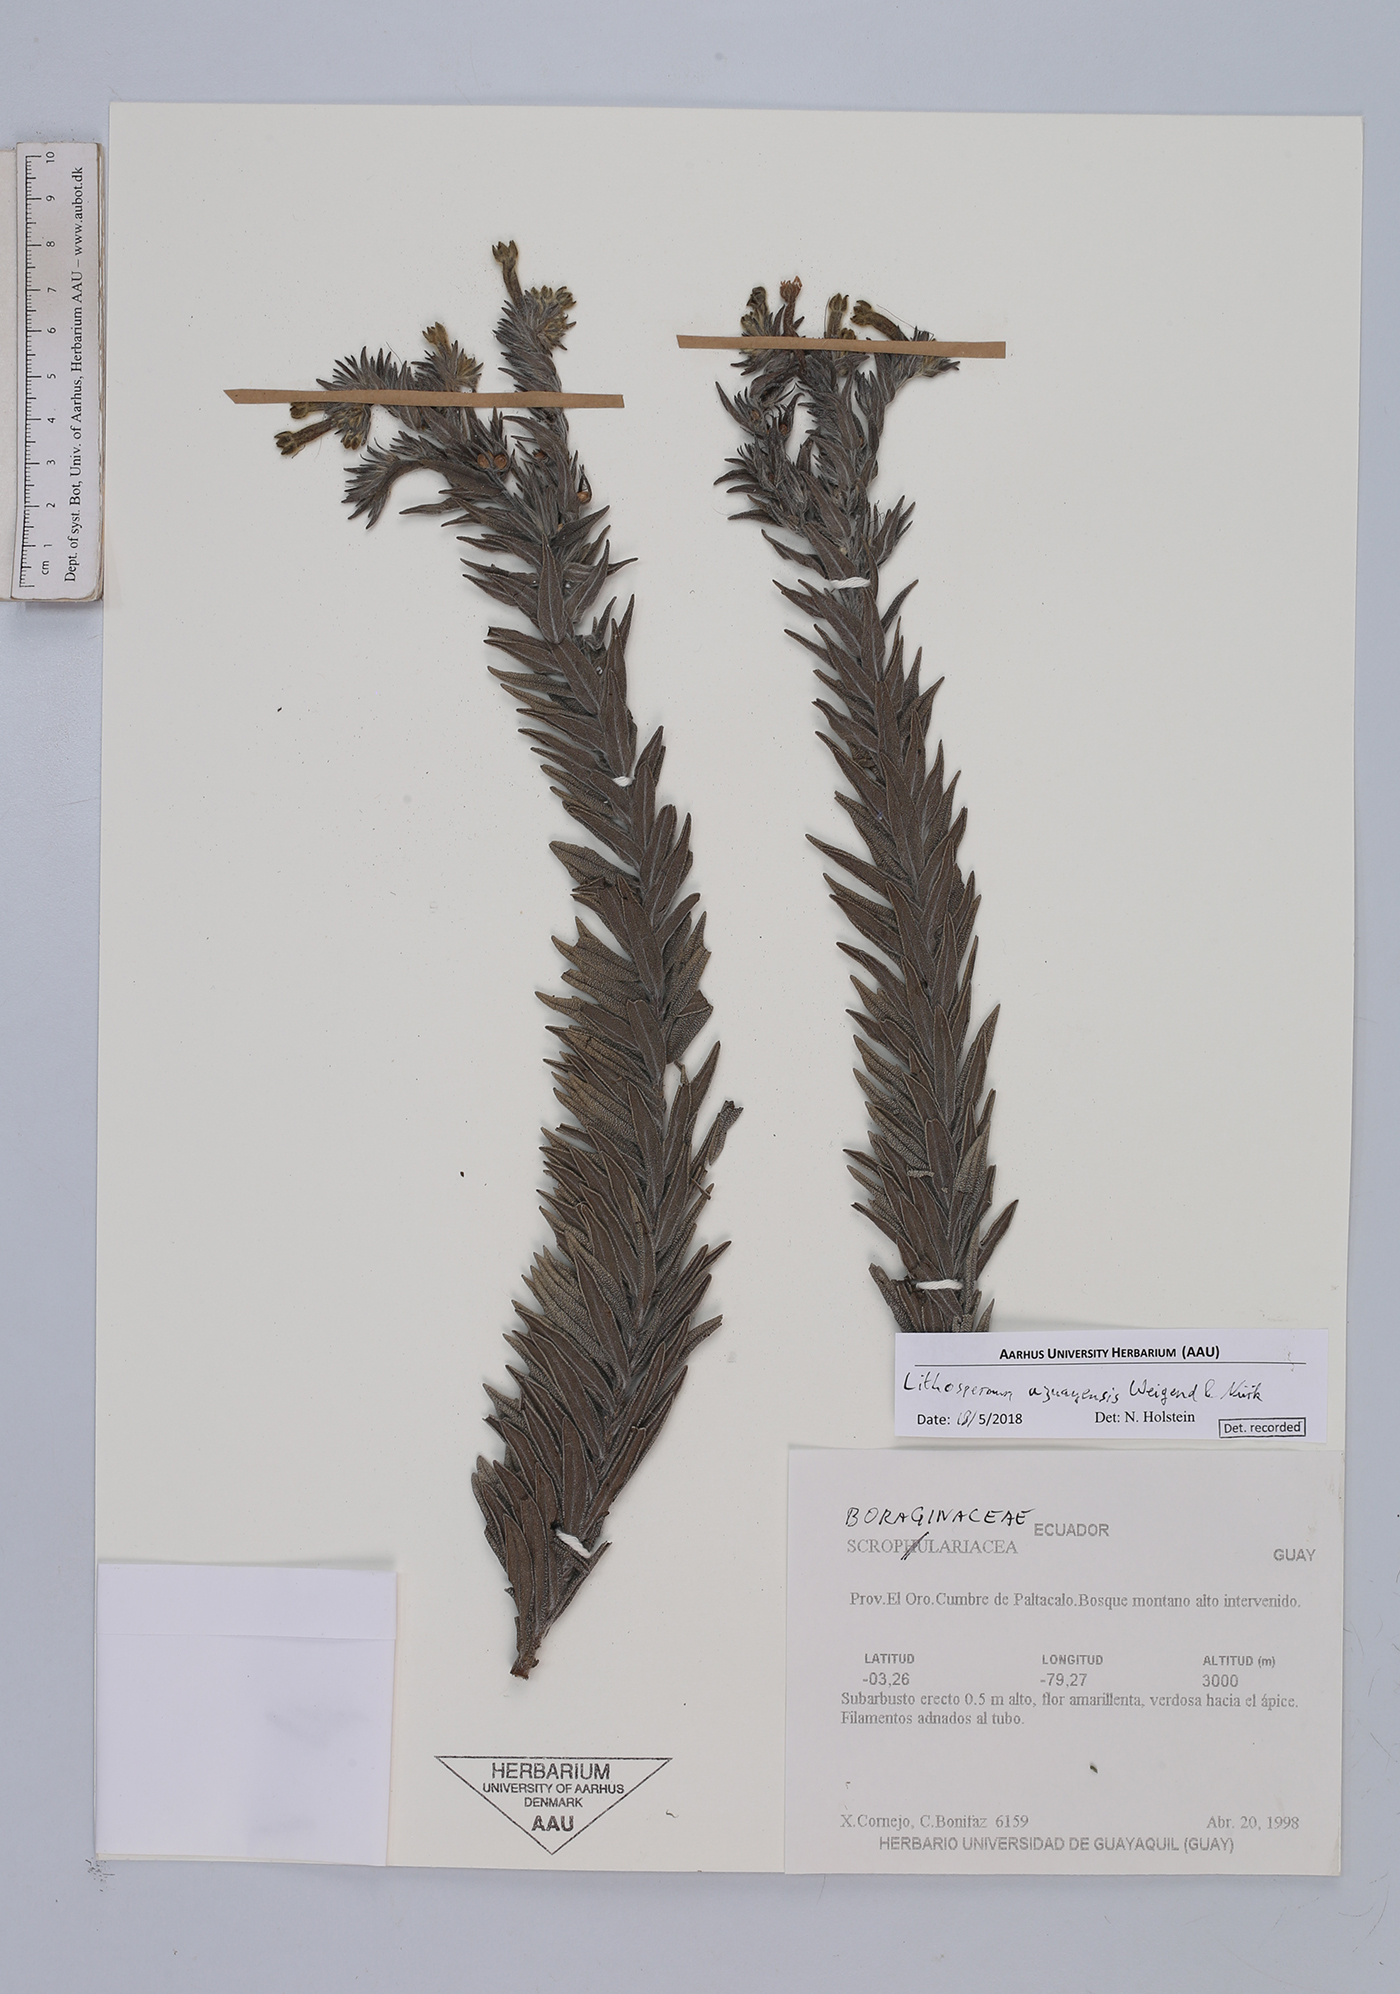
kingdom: Plantae
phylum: Tracheophyta
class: Magnoliopsida
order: Boraginales
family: Boraginaceae
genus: Lithospermum
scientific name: Lithospermum azuayense
